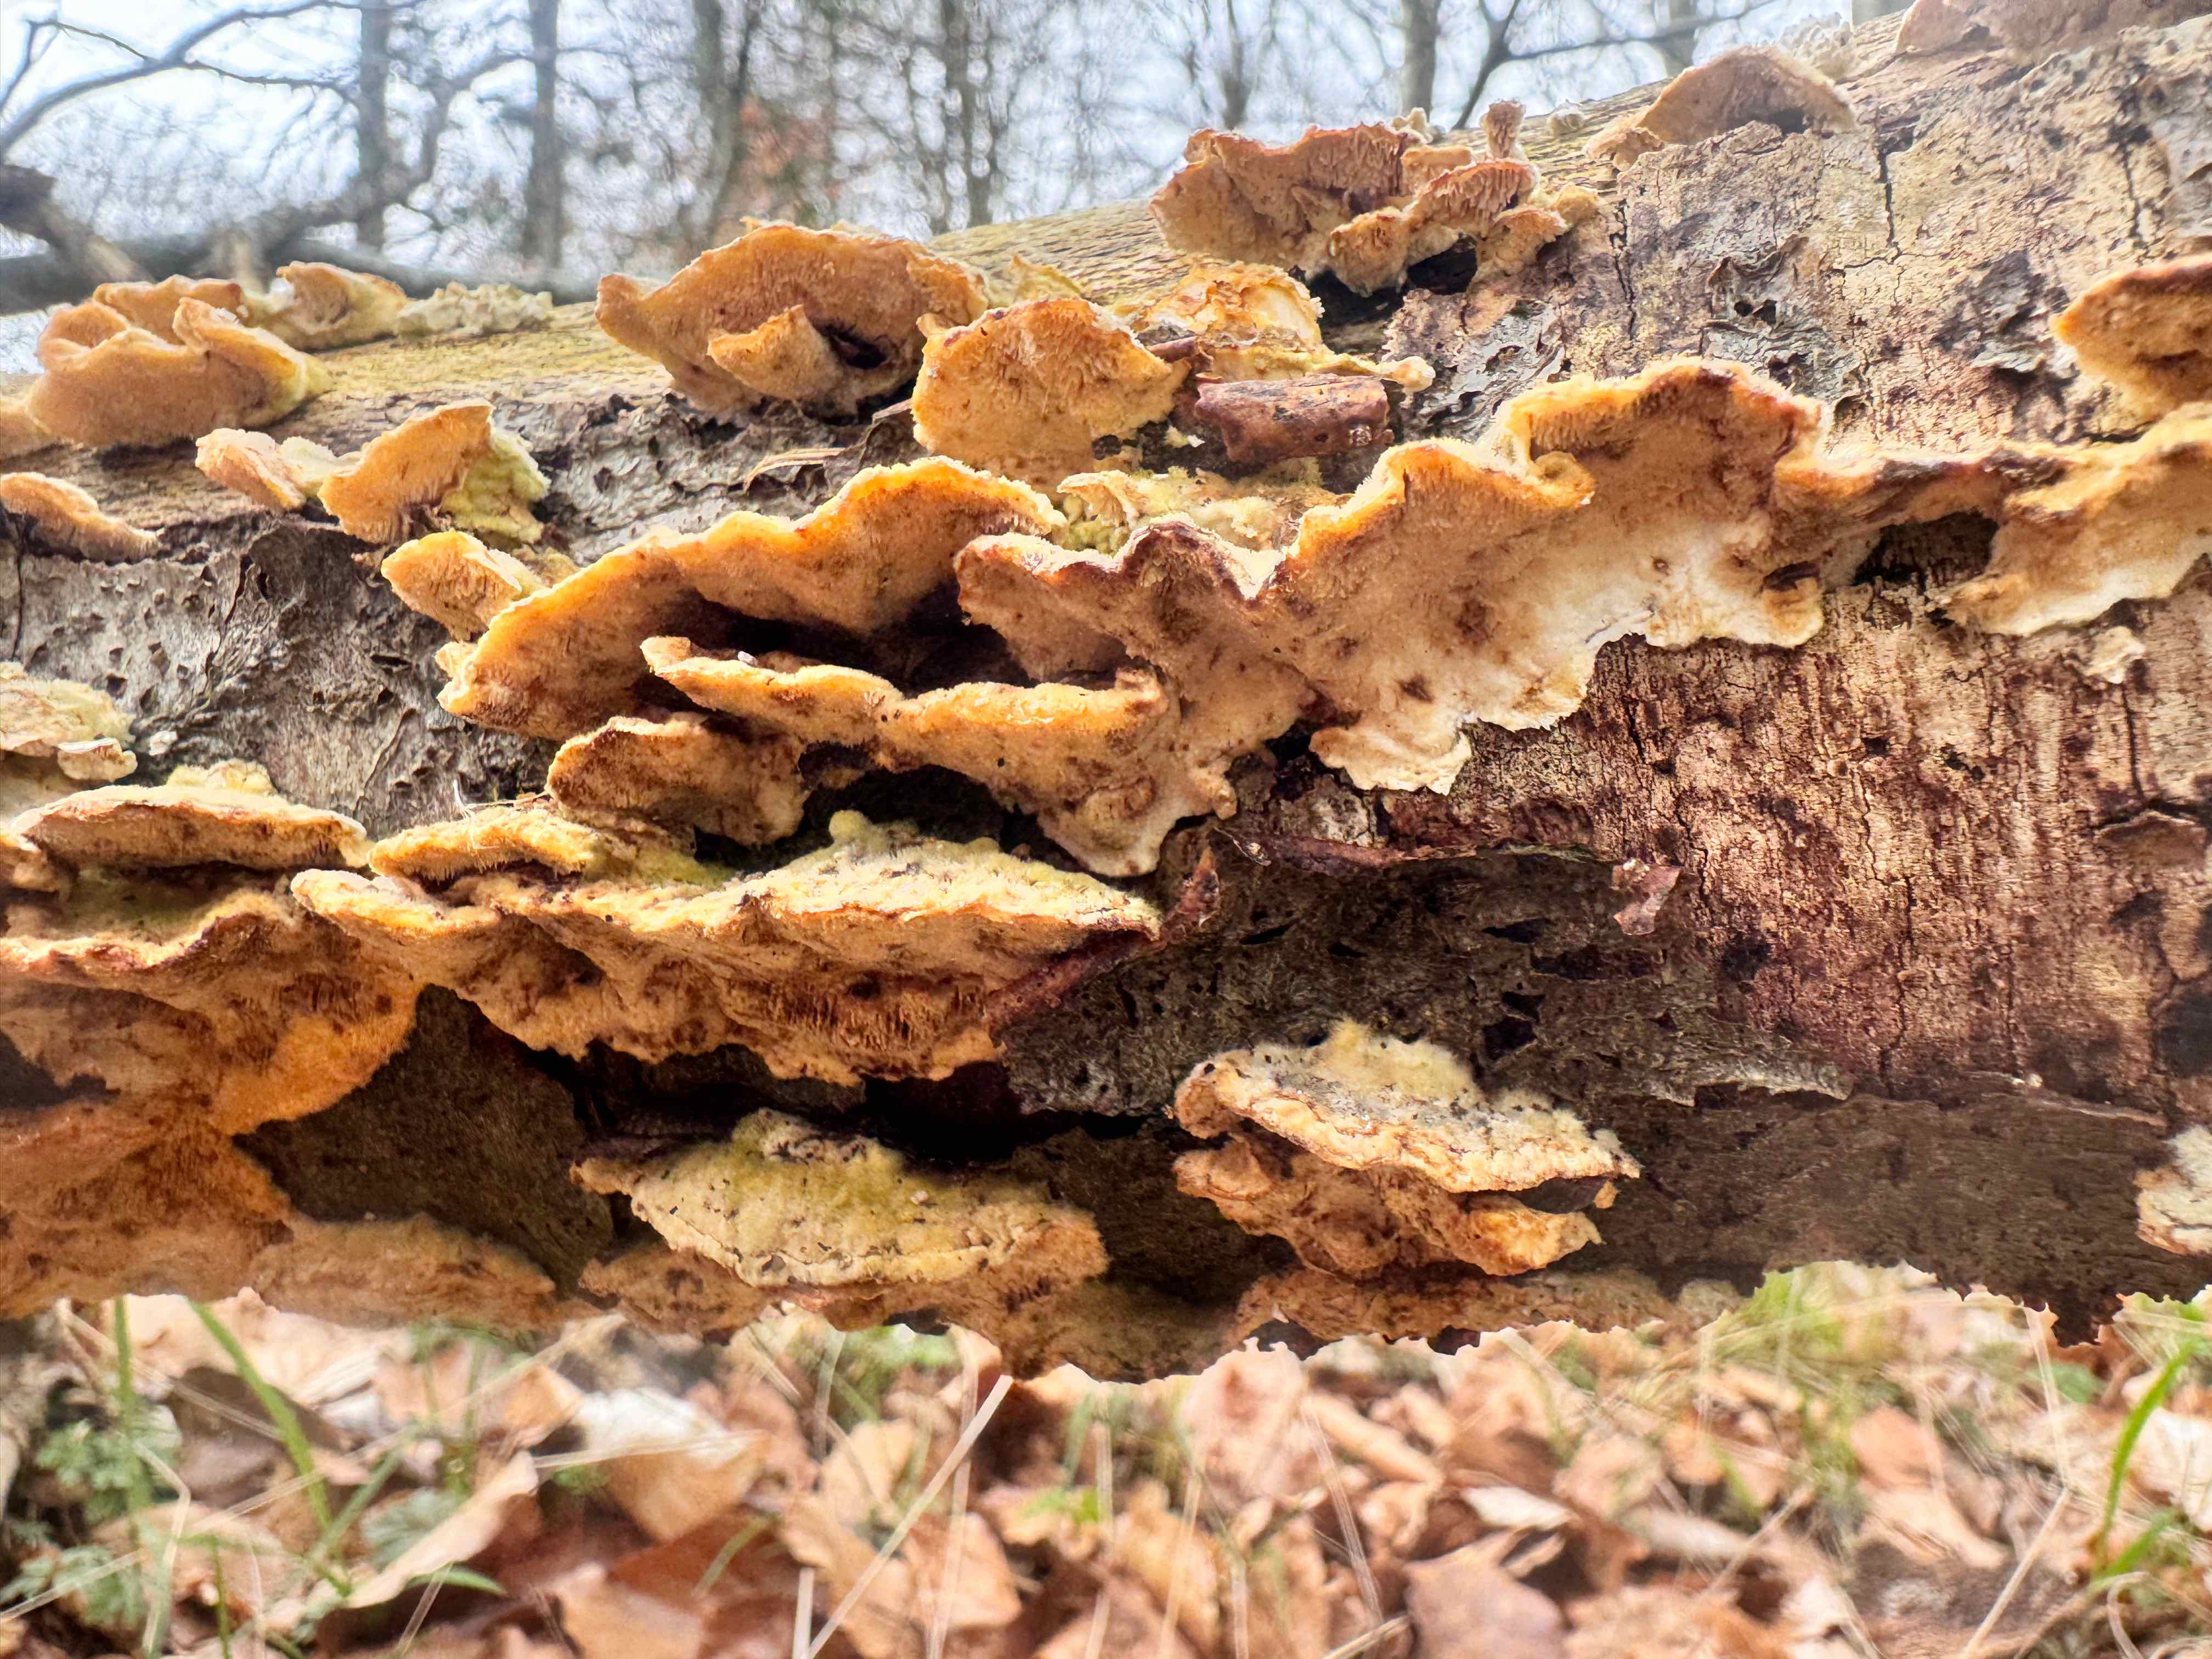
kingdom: Fungi
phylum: Basidiomycota
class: Agaricomycetes
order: Polyporales
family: Polyporaceae
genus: Trametes
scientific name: Trametes ochracea
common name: bæltet læderporesvamp
